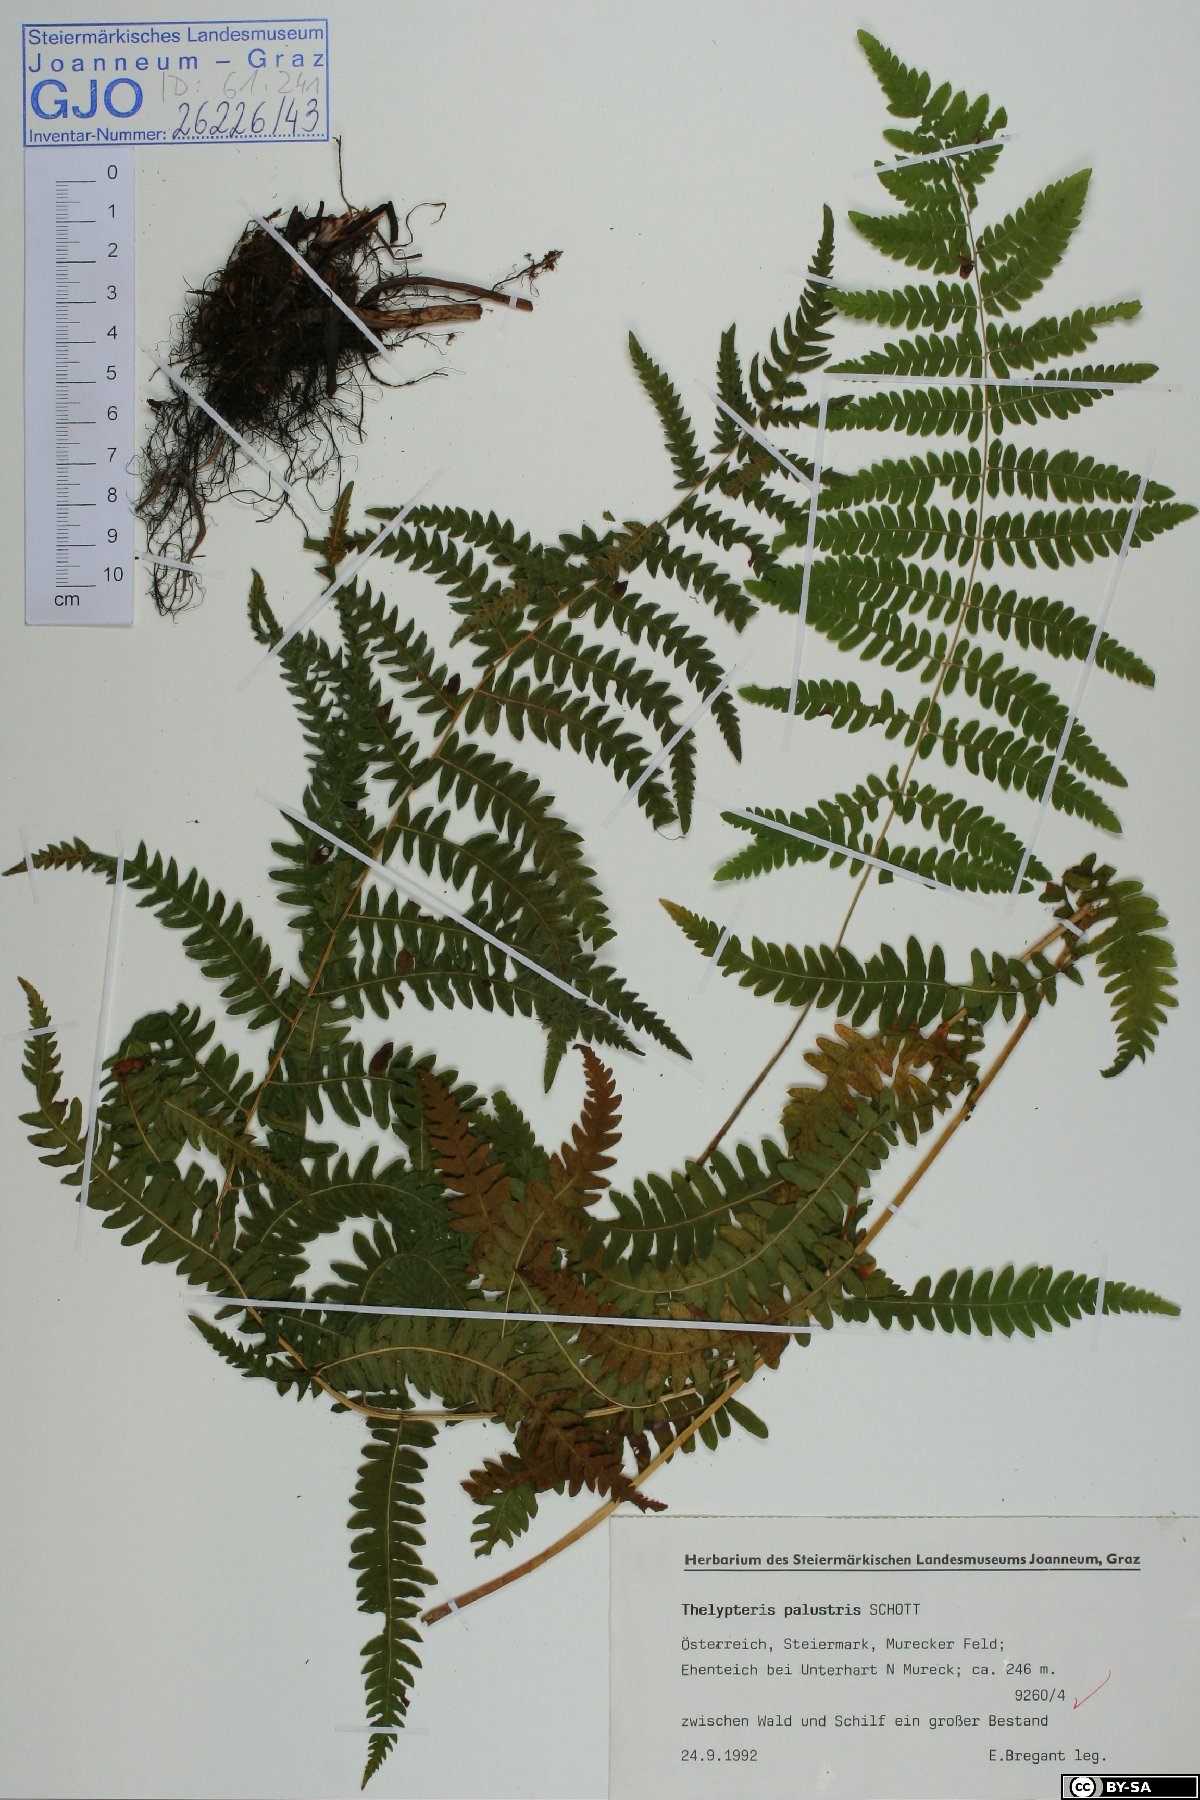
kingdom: Plantae
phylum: Tracheophyta
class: Polypodiopsida
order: Polypodiales
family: Thelypteridaceae
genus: Thelypteris
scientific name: Thelypteris palustris
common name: Marsh fern
